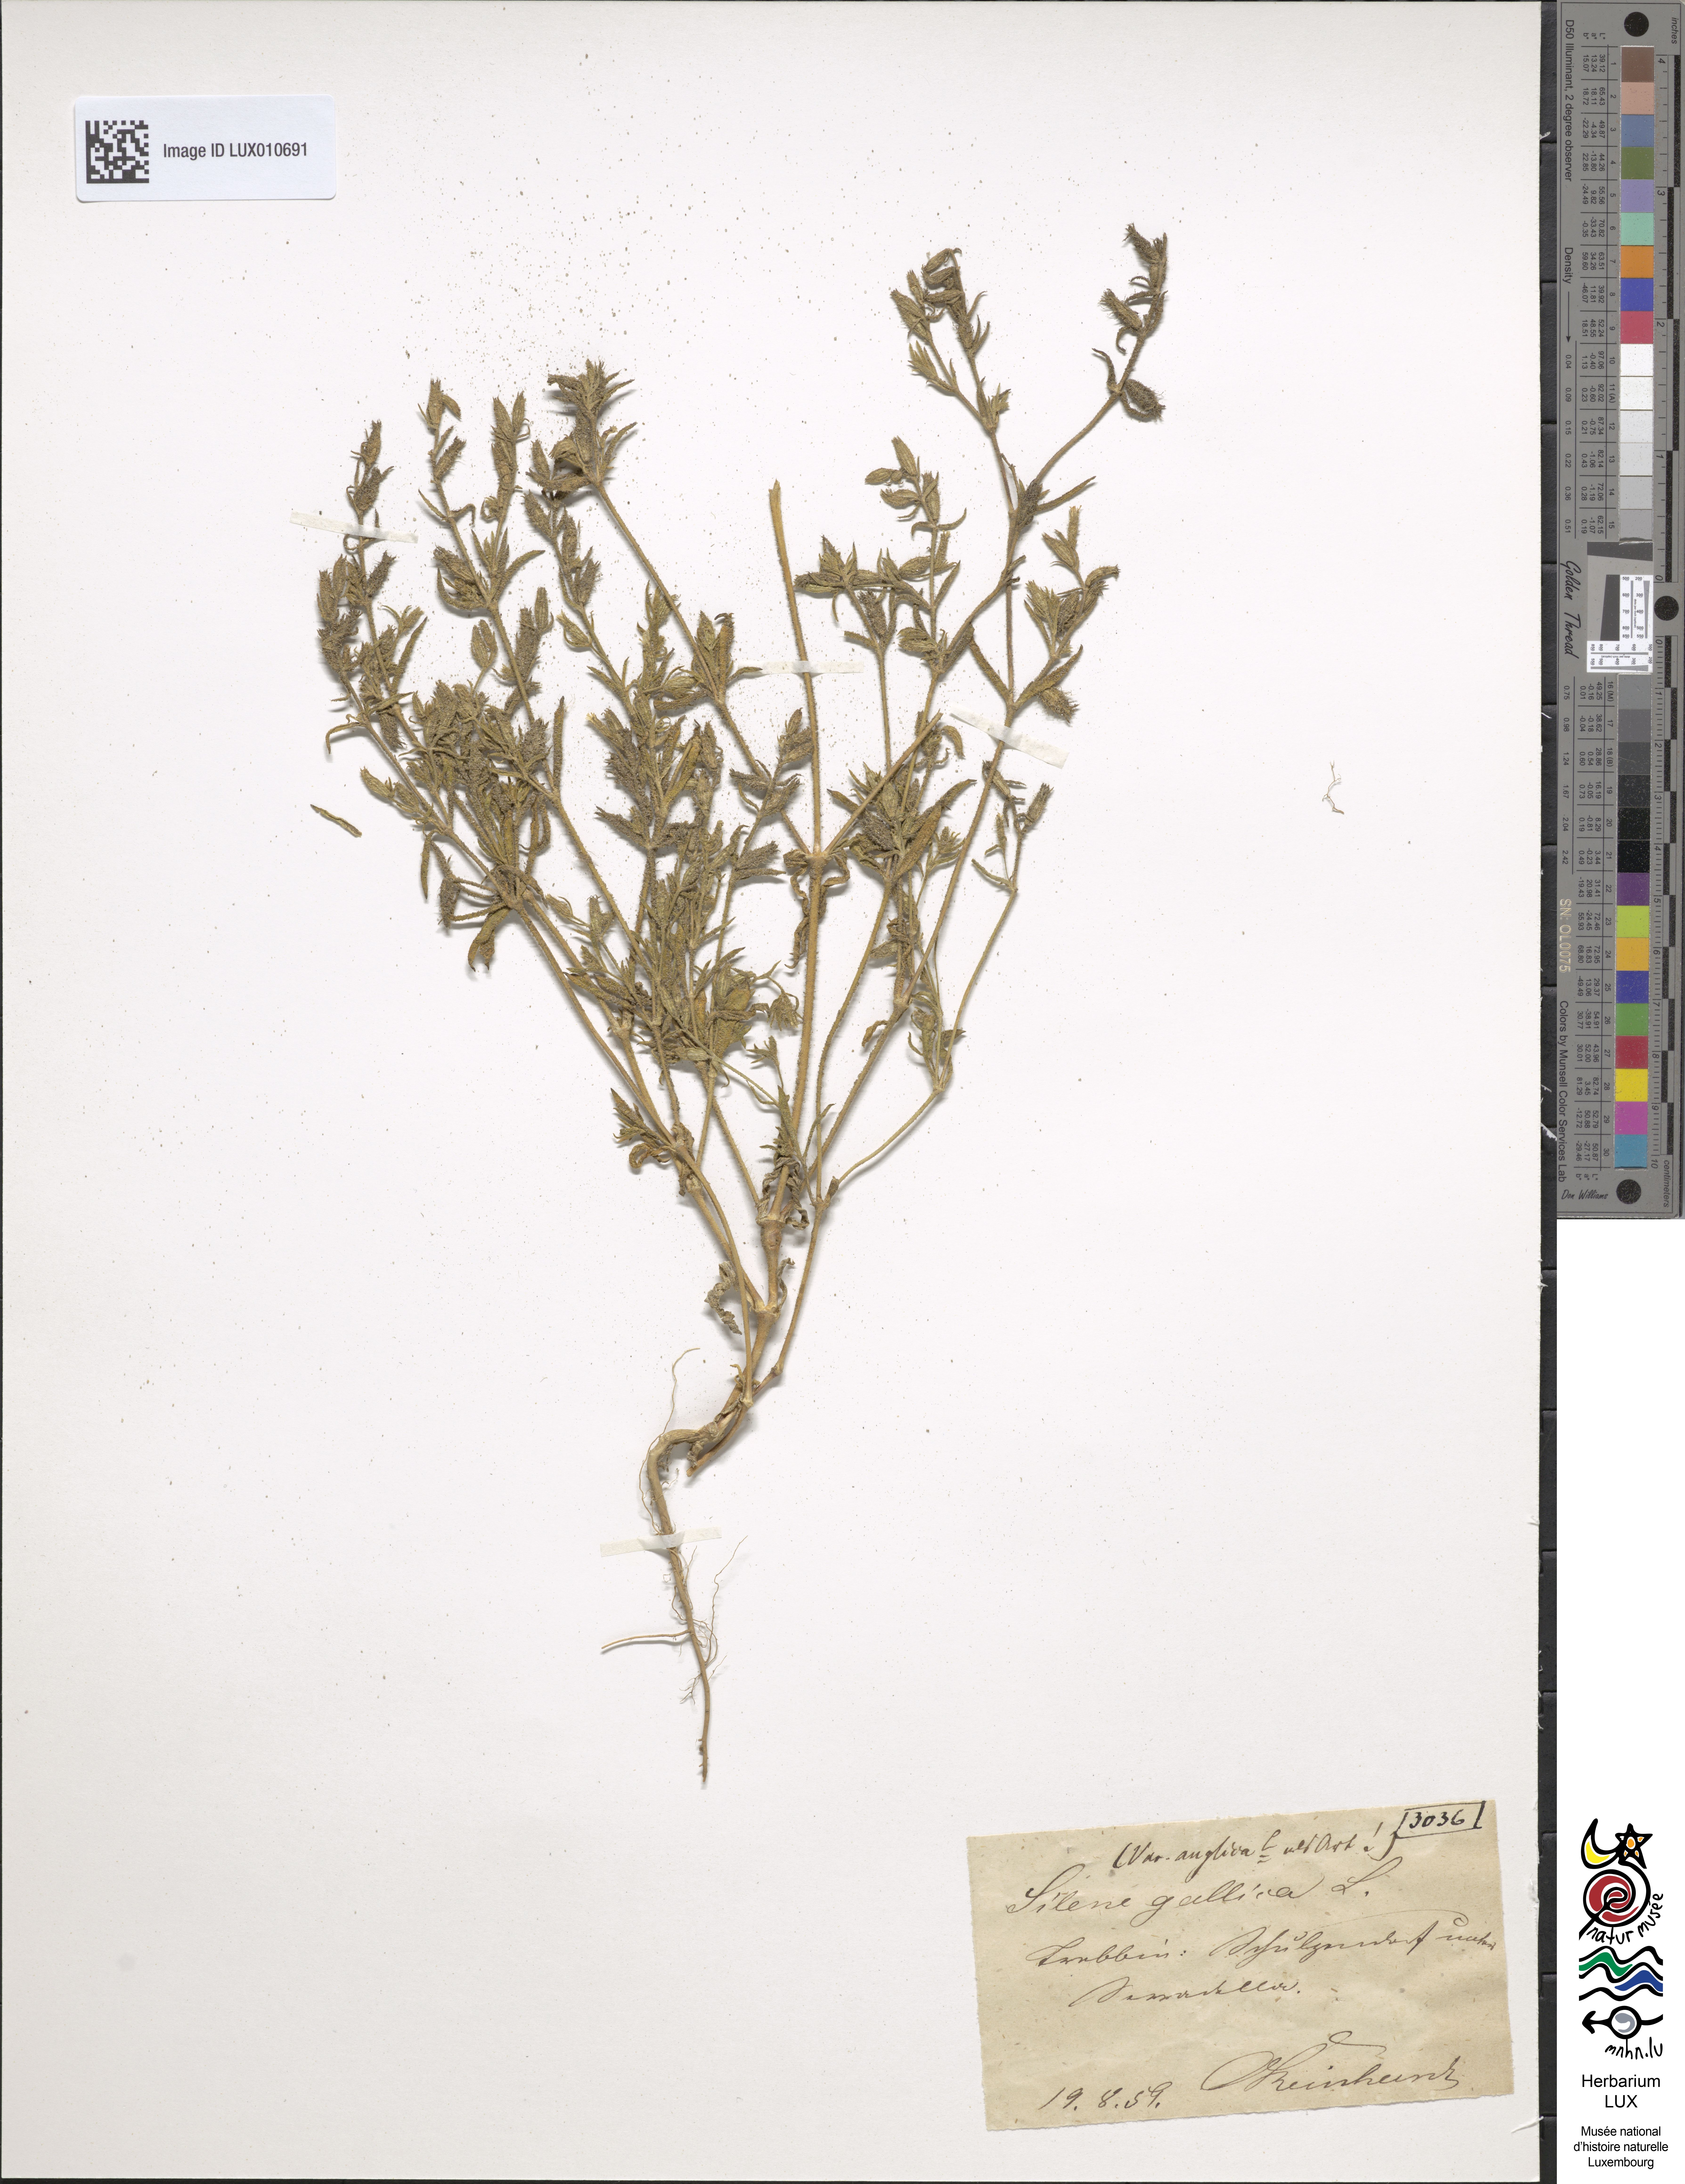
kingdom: Plantae
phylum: Tracheophyta
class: Magnoliopsida
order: Caryophyllales
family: Caryophyllaceae
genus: Silene
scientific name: Silene gallica
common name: Small-flowered catchfly
